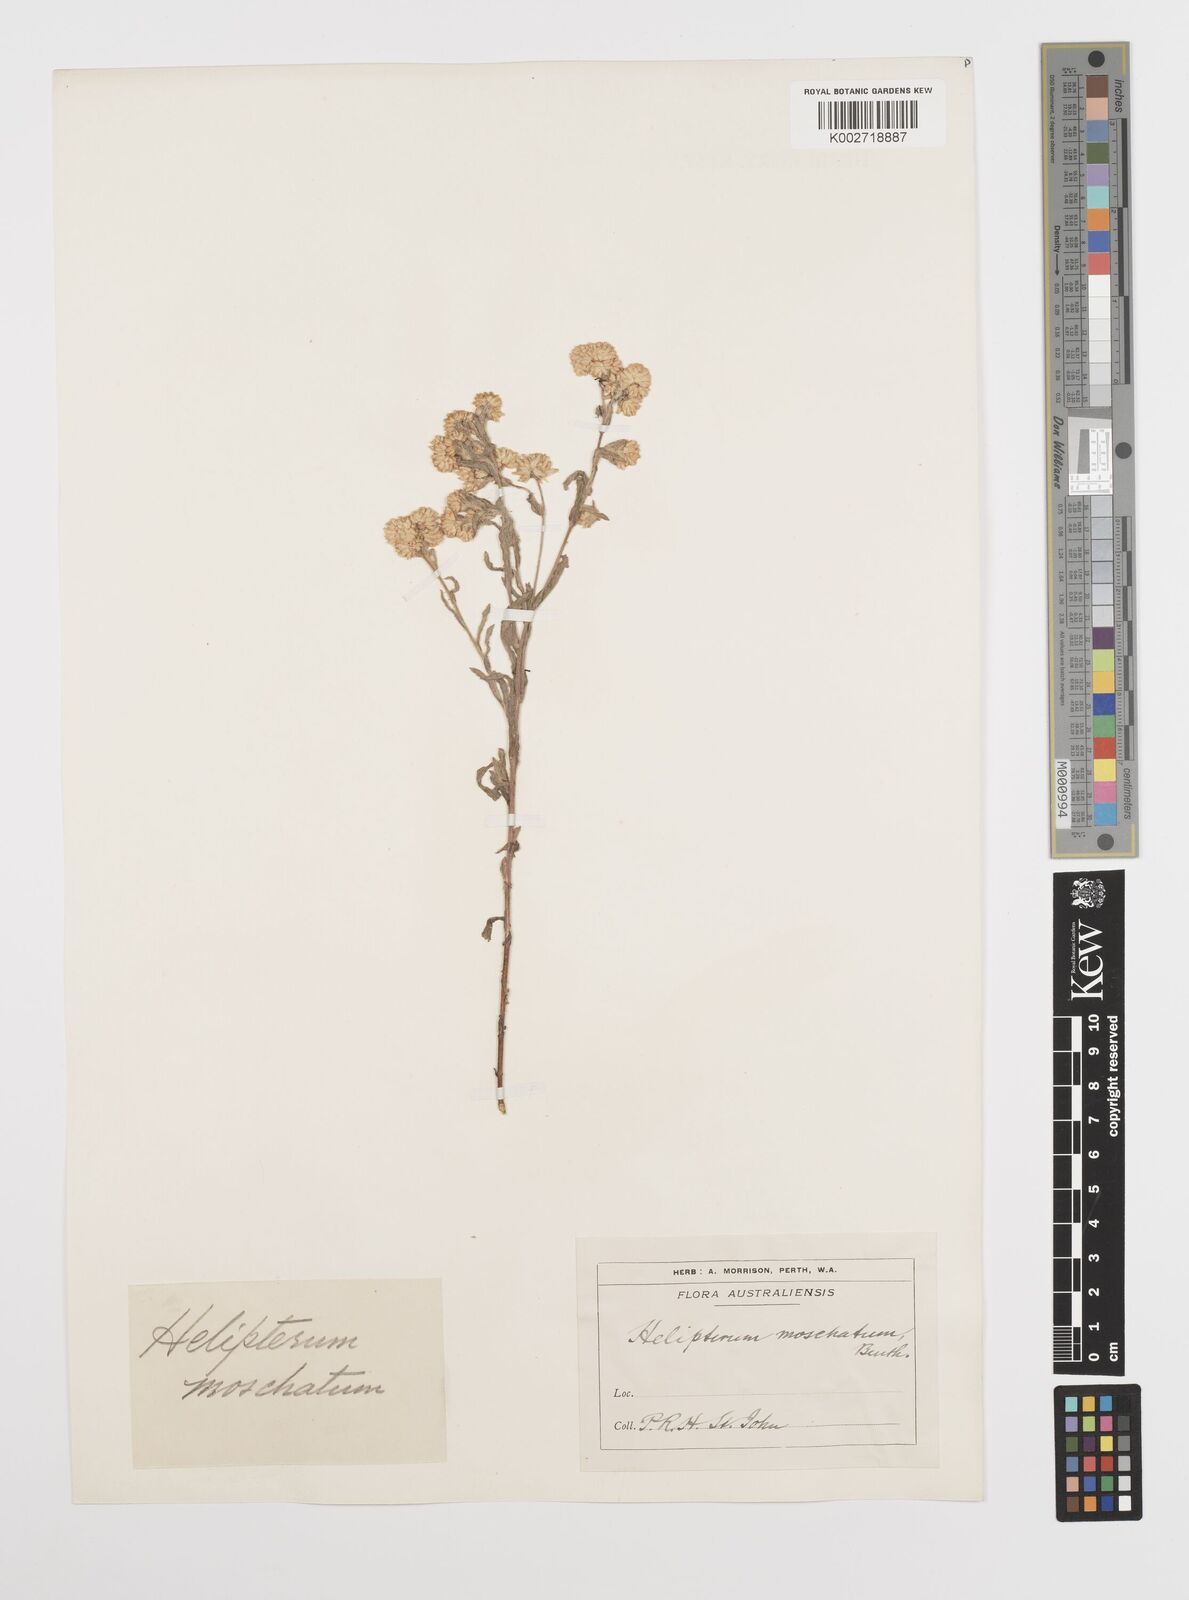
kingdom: Plantae
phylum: Tracheophyta
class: Magnoliopsida
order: Asterales
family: Asteraceae
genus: Rhodanthe
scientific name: Rhodanthe moschata
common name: Musk sunray
